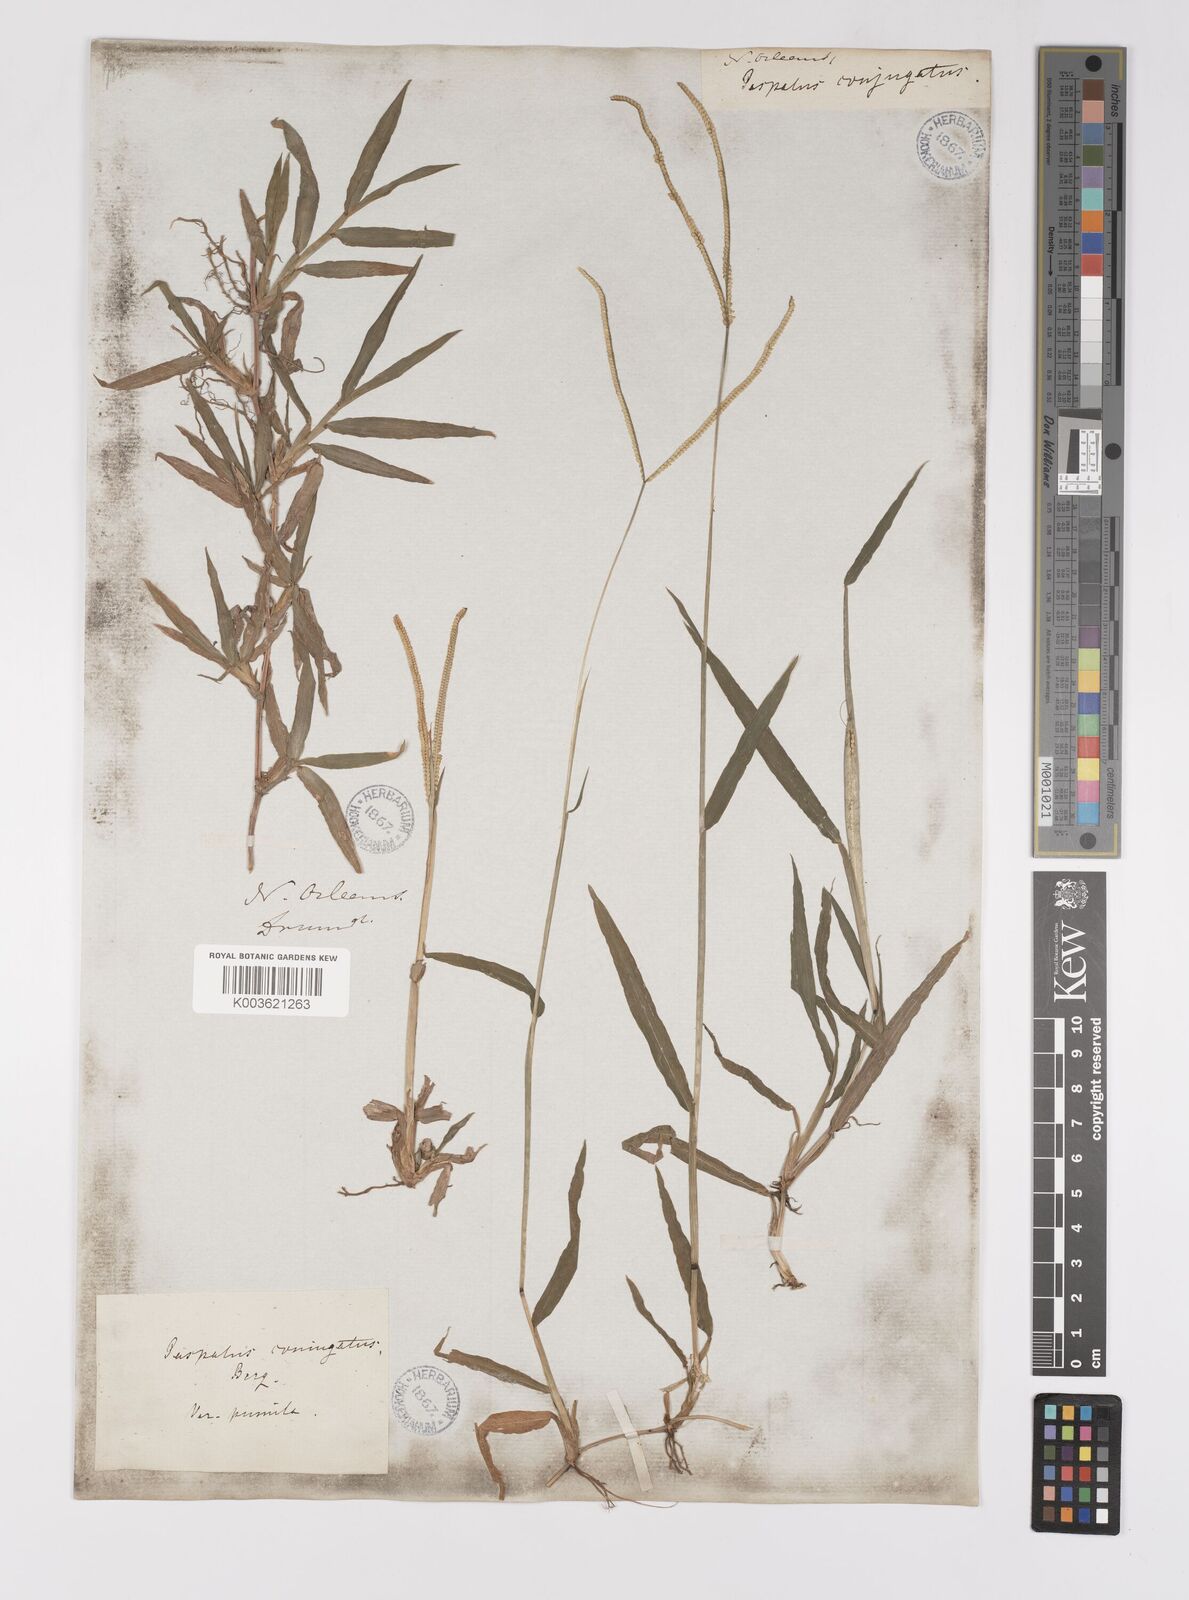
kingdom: Plantae
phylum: Tracheophyta
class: Liliopsida
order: Poales
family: Poaceae
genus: Paspalum
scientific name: Paspalum conjugatum
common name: Hilograss
